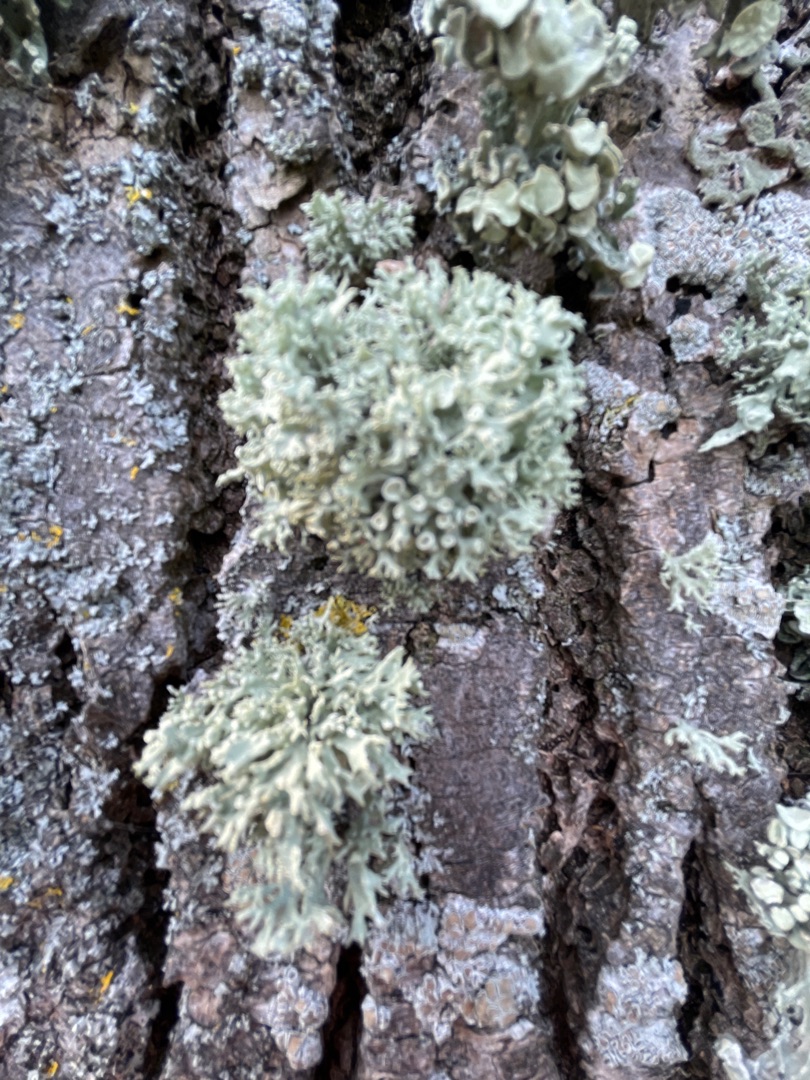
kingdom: Fungi
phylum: Ascomycota
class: Lecanoromycetes
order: Lecanorales
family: Ramalinaceae
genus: Ramalina
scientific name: Ramalina fastigiata
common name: Tue-grenlav
